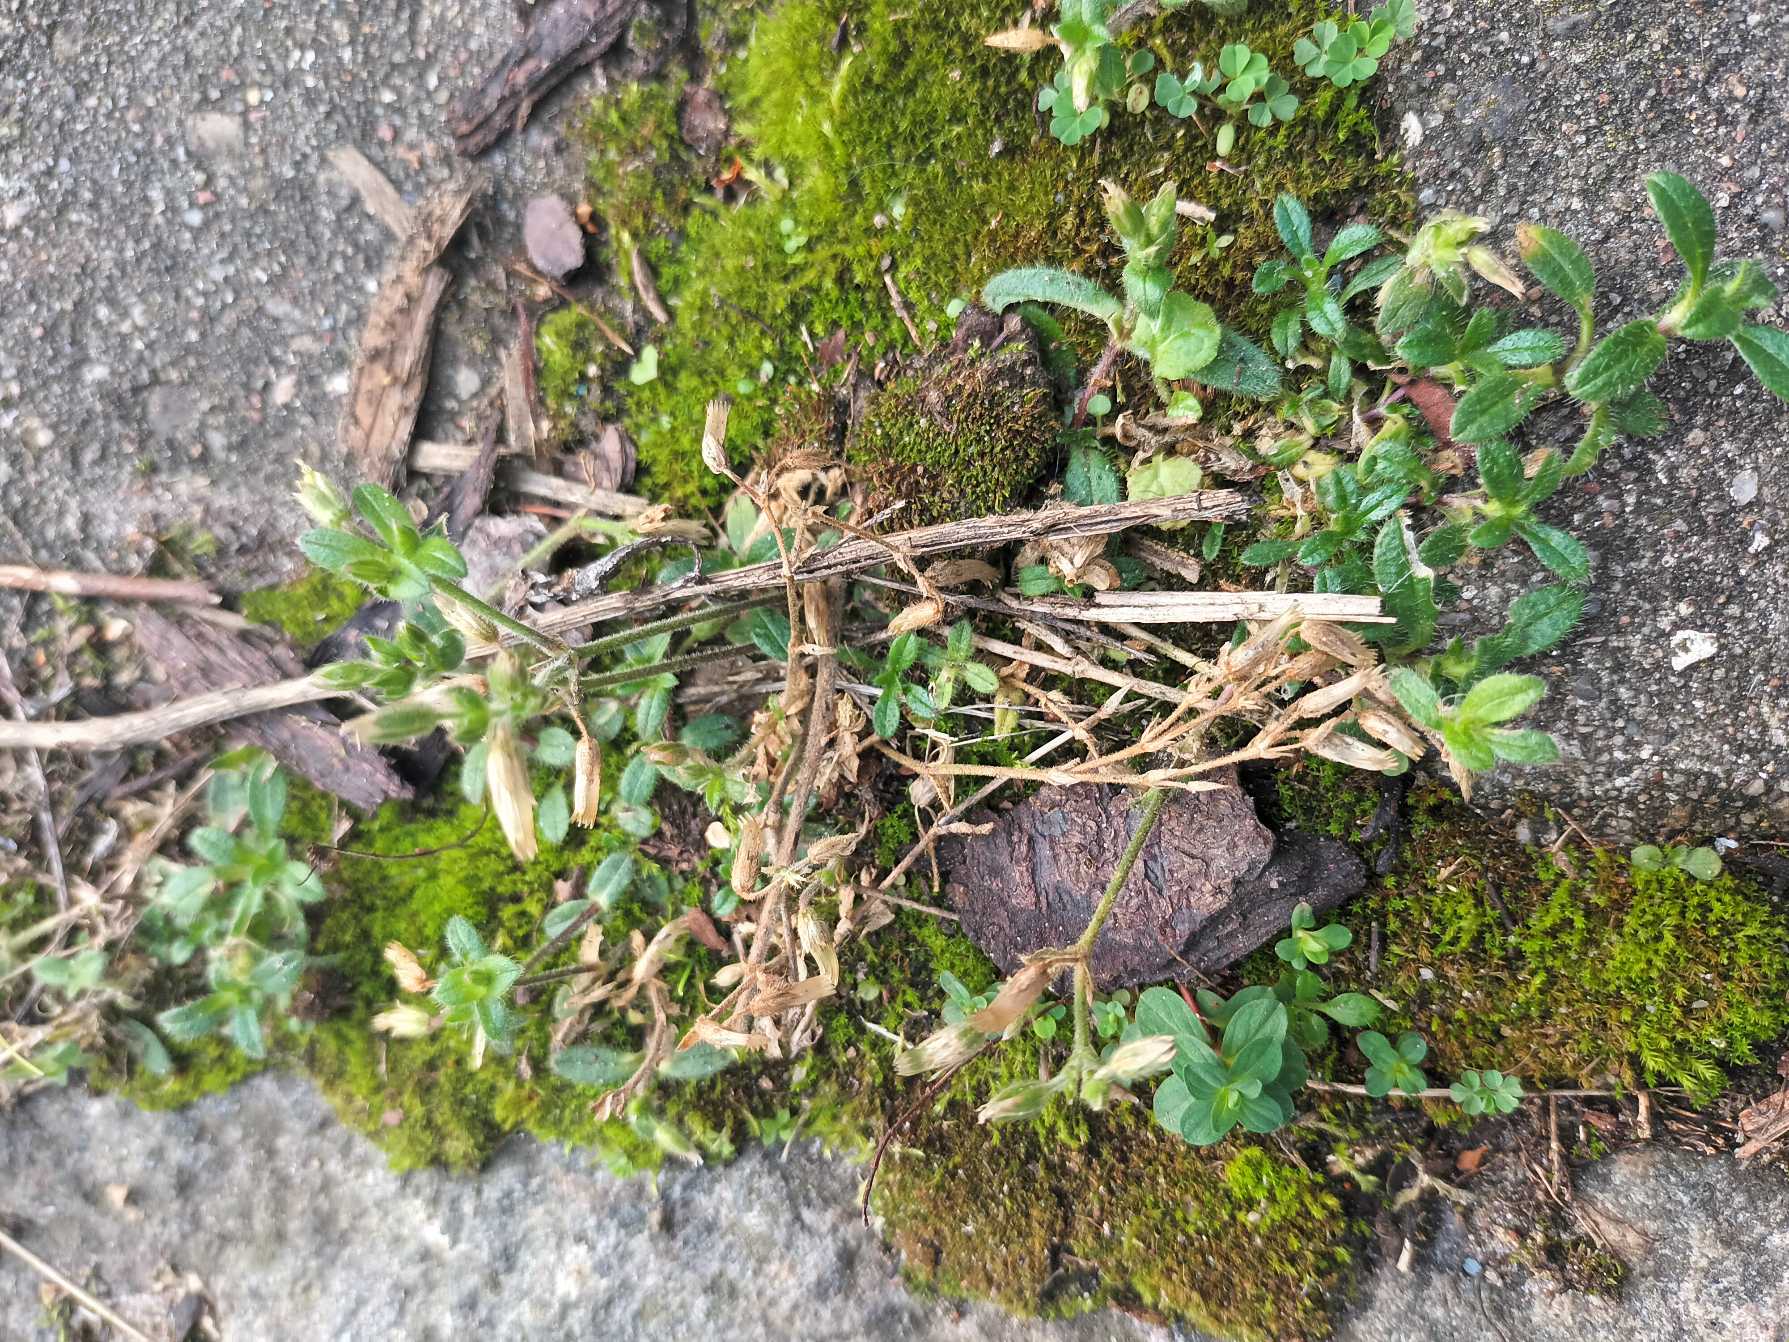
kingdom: Plantae
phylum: Tracheophyta
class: Magnoliopsida
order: Caryophyllales
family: Caryophyllaceae
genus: Cerastium
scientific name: Cerastium fontanum
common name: Almindelig hønsetarm
